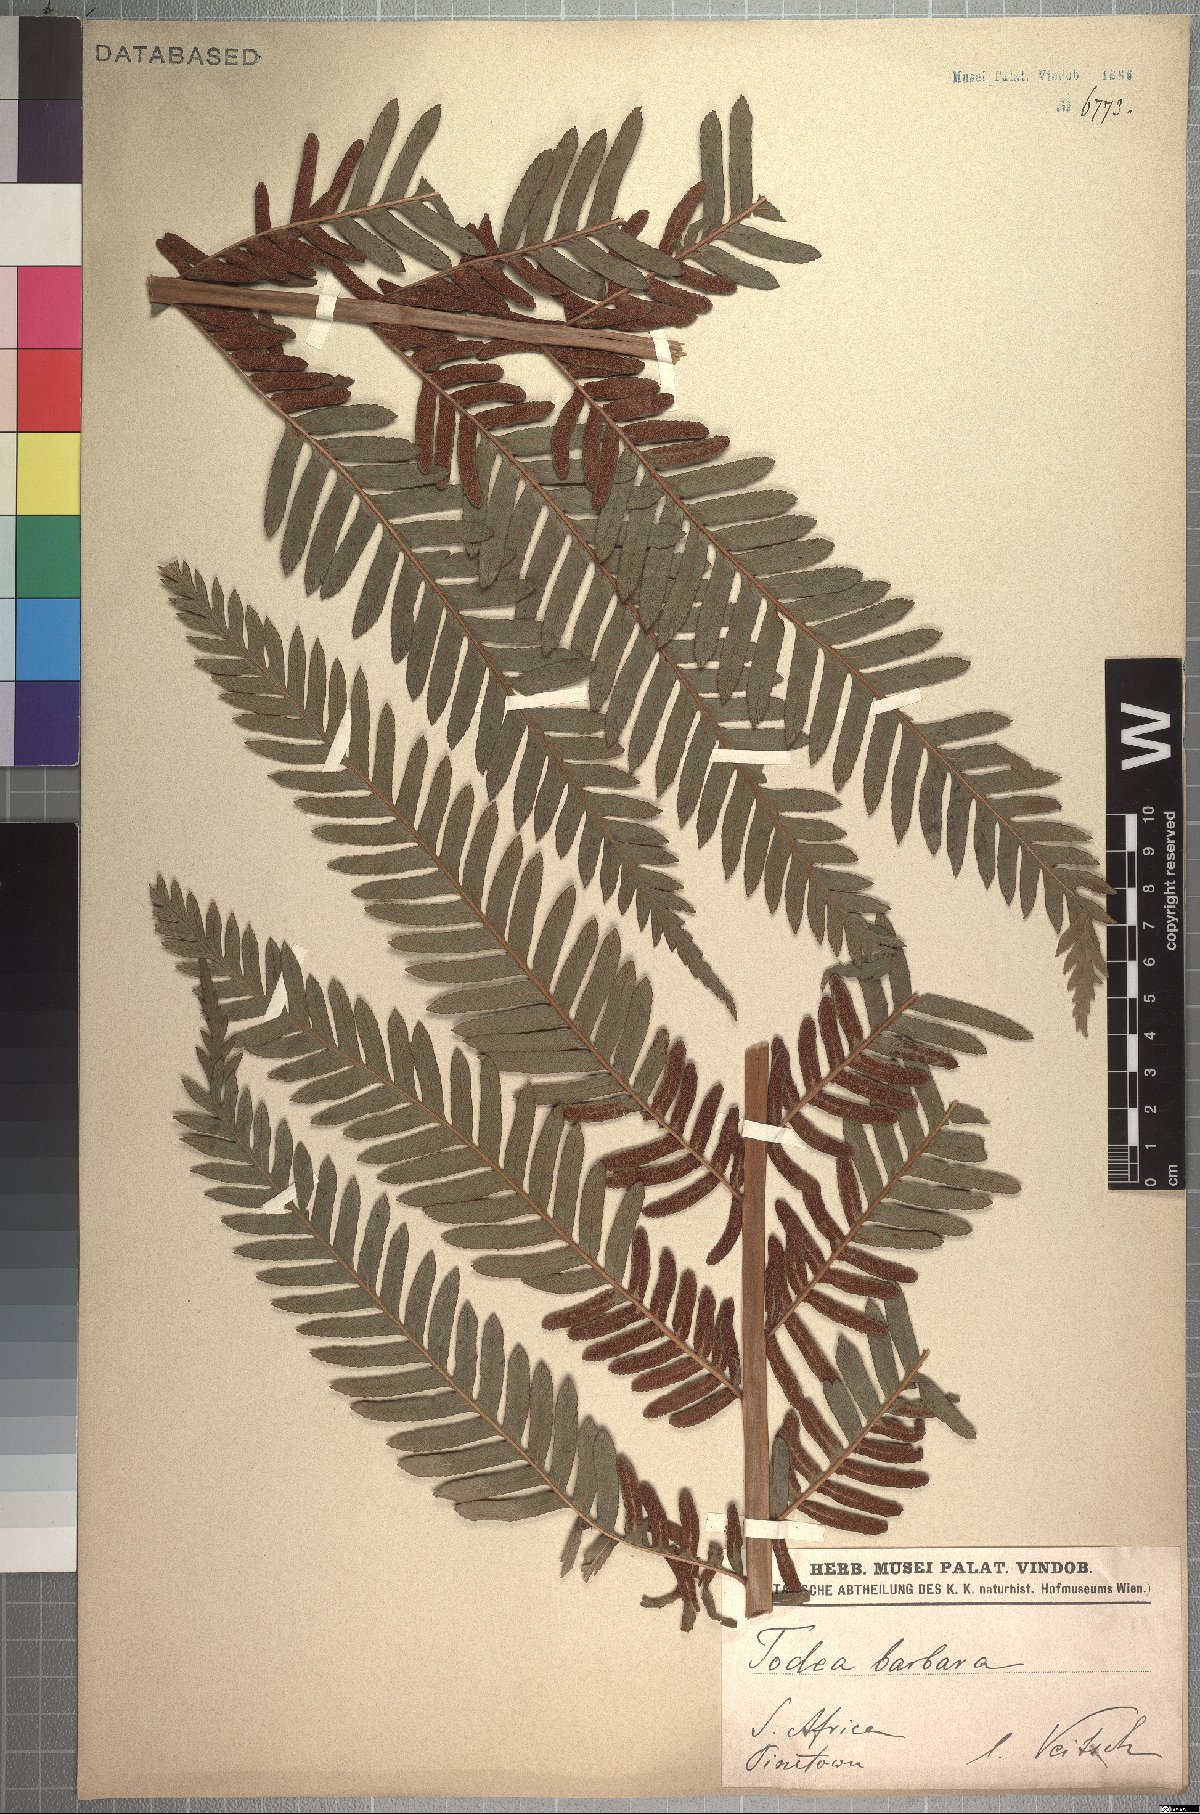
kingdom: Plantae
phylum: Tracheophyta
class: Polypodiopsida
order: Osmundales
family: Osmundaceae
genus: Todea
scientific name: Todea barbara
